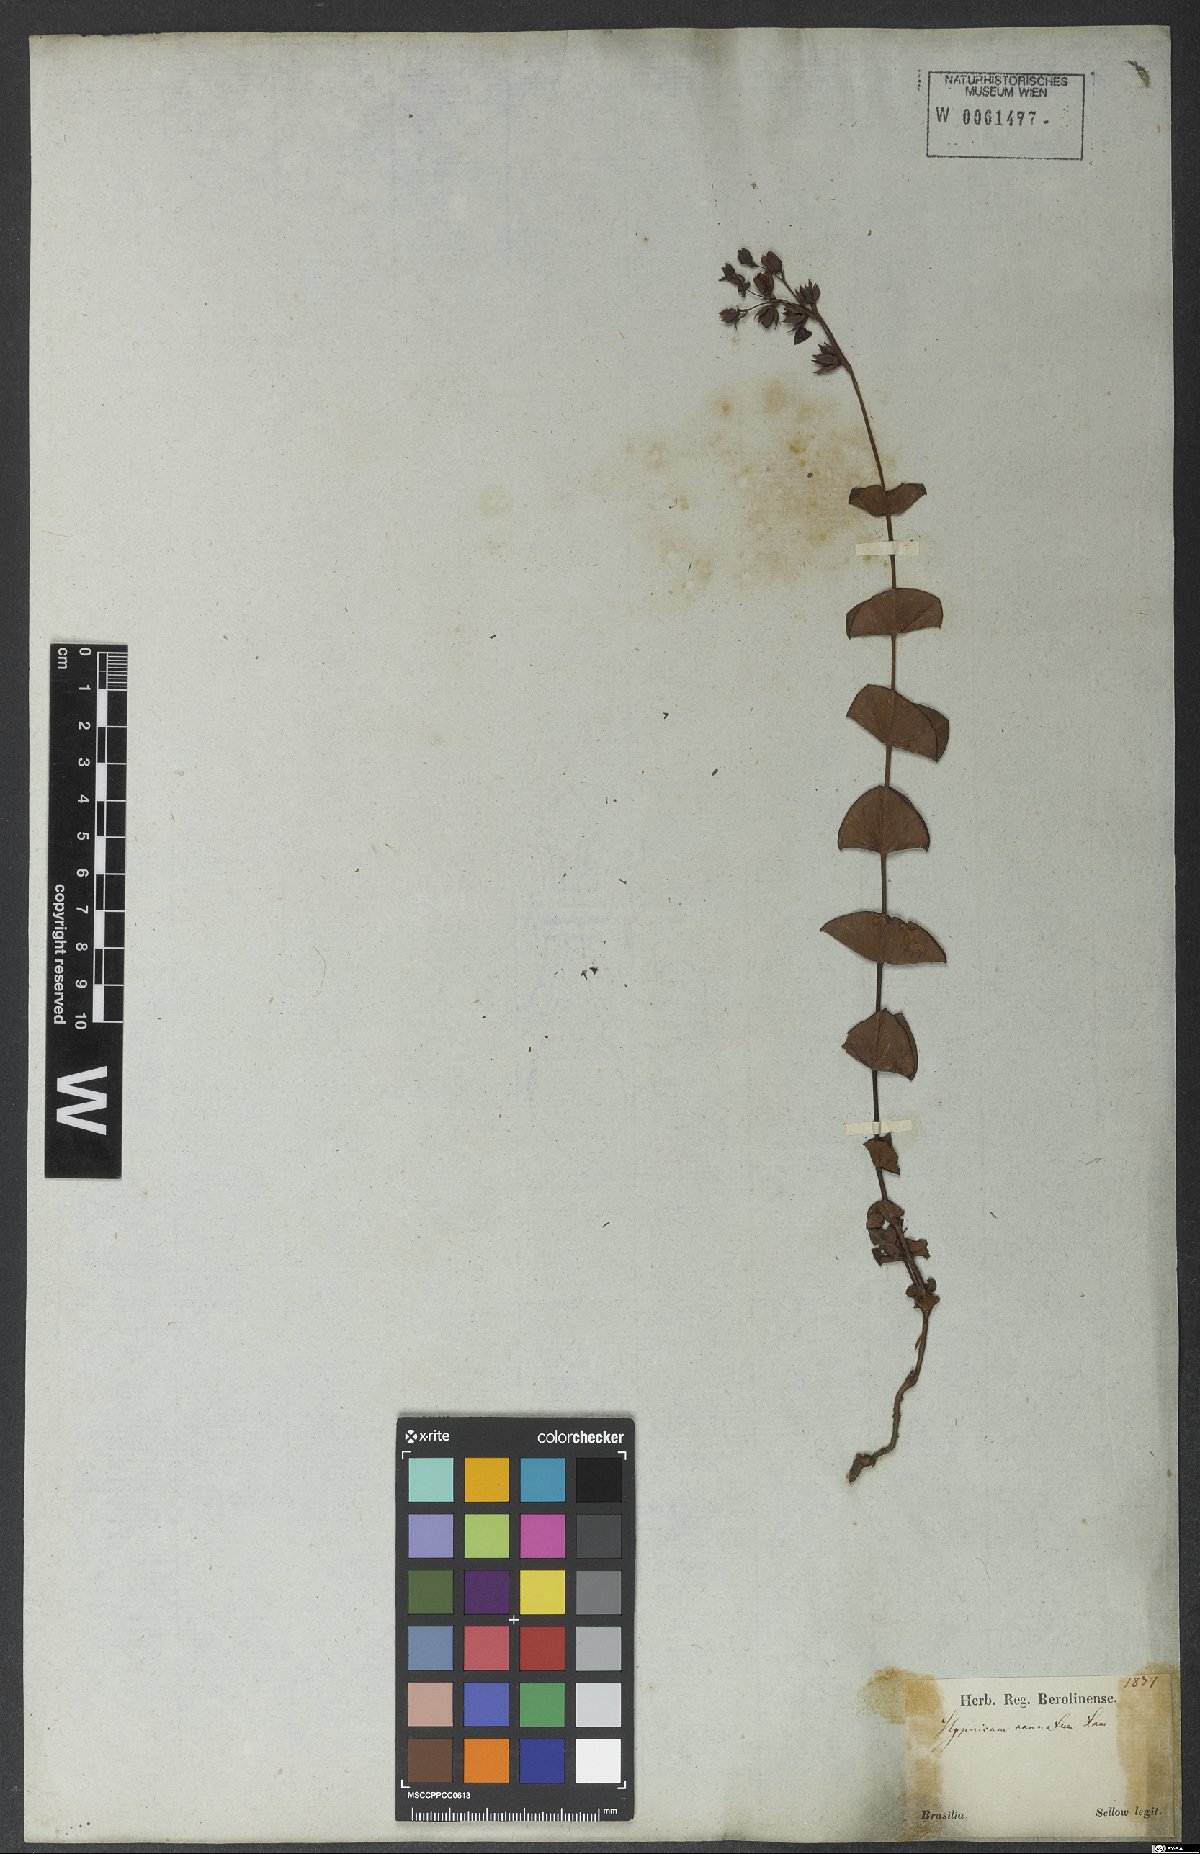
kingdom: Plantae
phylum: Tracheophyta
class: Magnoliopsida
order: Malpighiales
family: Hypericaceae
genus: Hypericum
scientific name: Hypericum connatum
